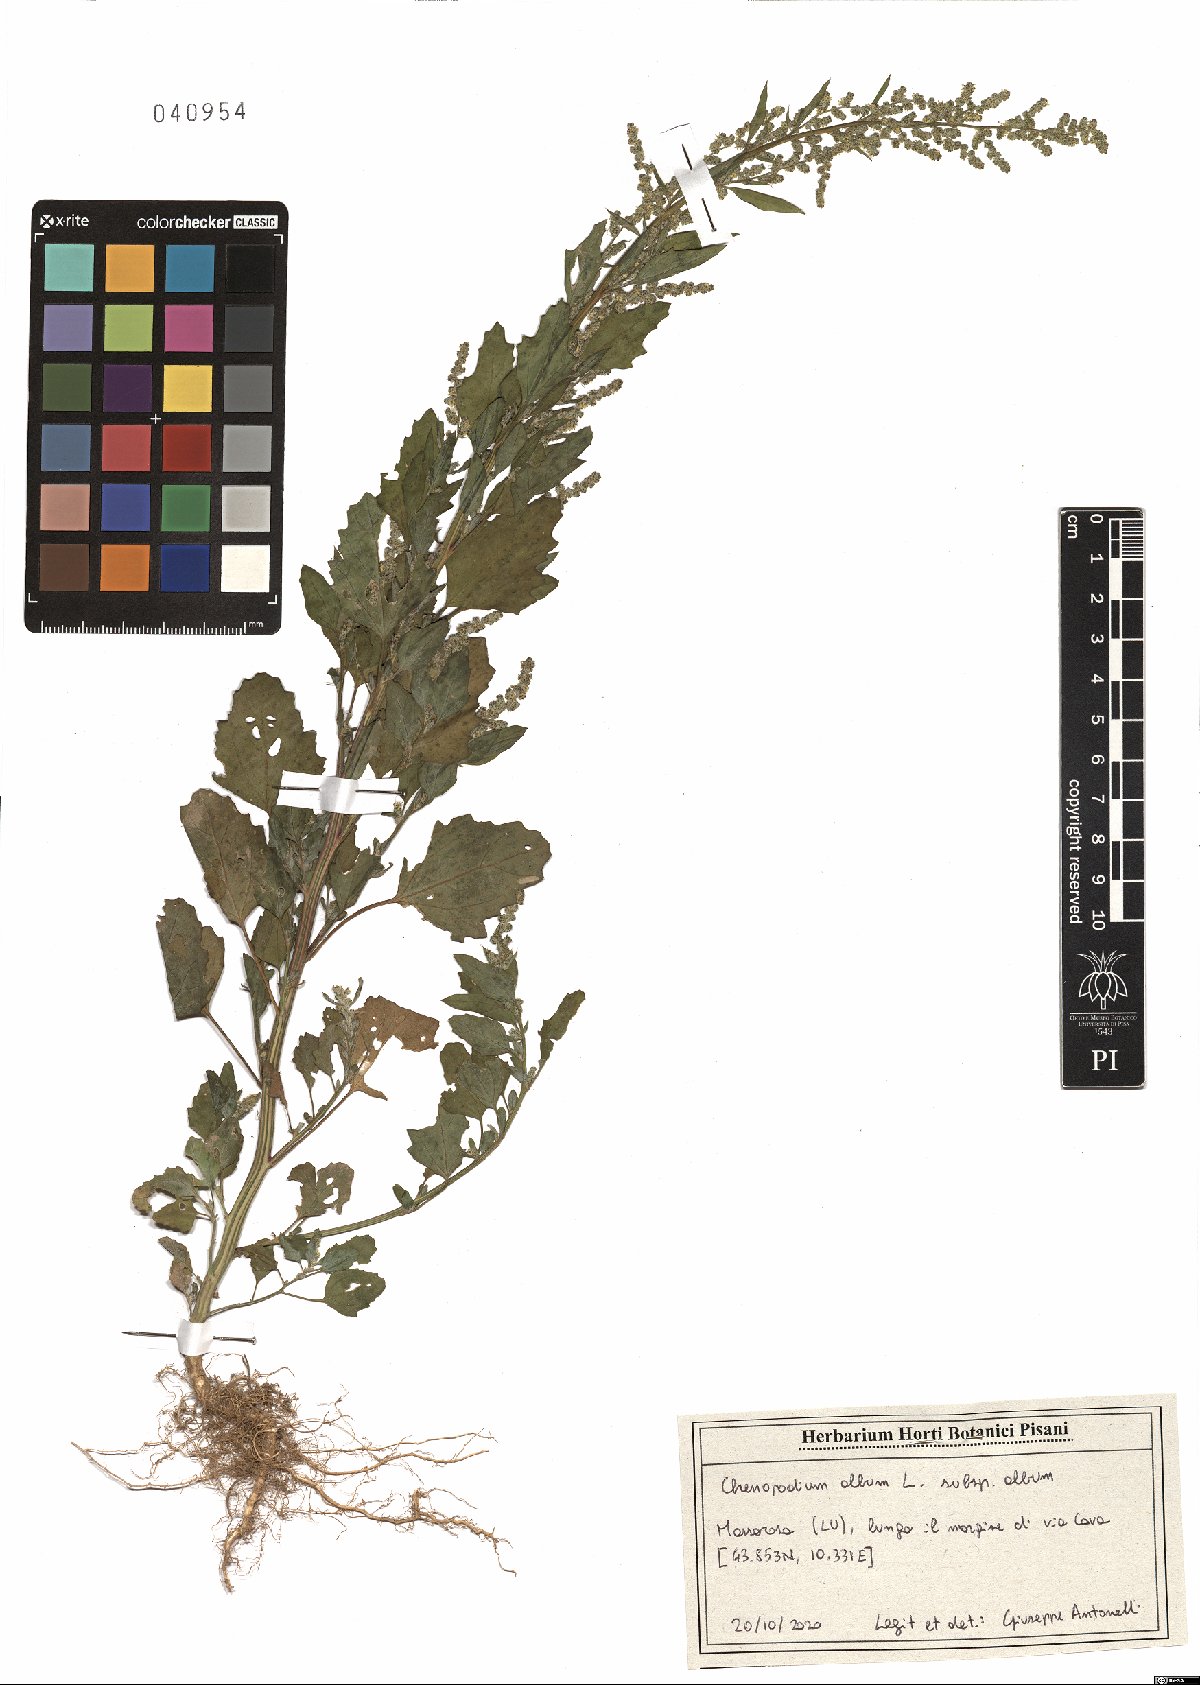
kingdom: Plantae
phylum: Tracheophyta
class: Magnoliopsida
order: Caryophyllales
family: Amaranthaceae
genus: Chenopodium
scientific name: Chenopodium album
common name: Fat-hen
